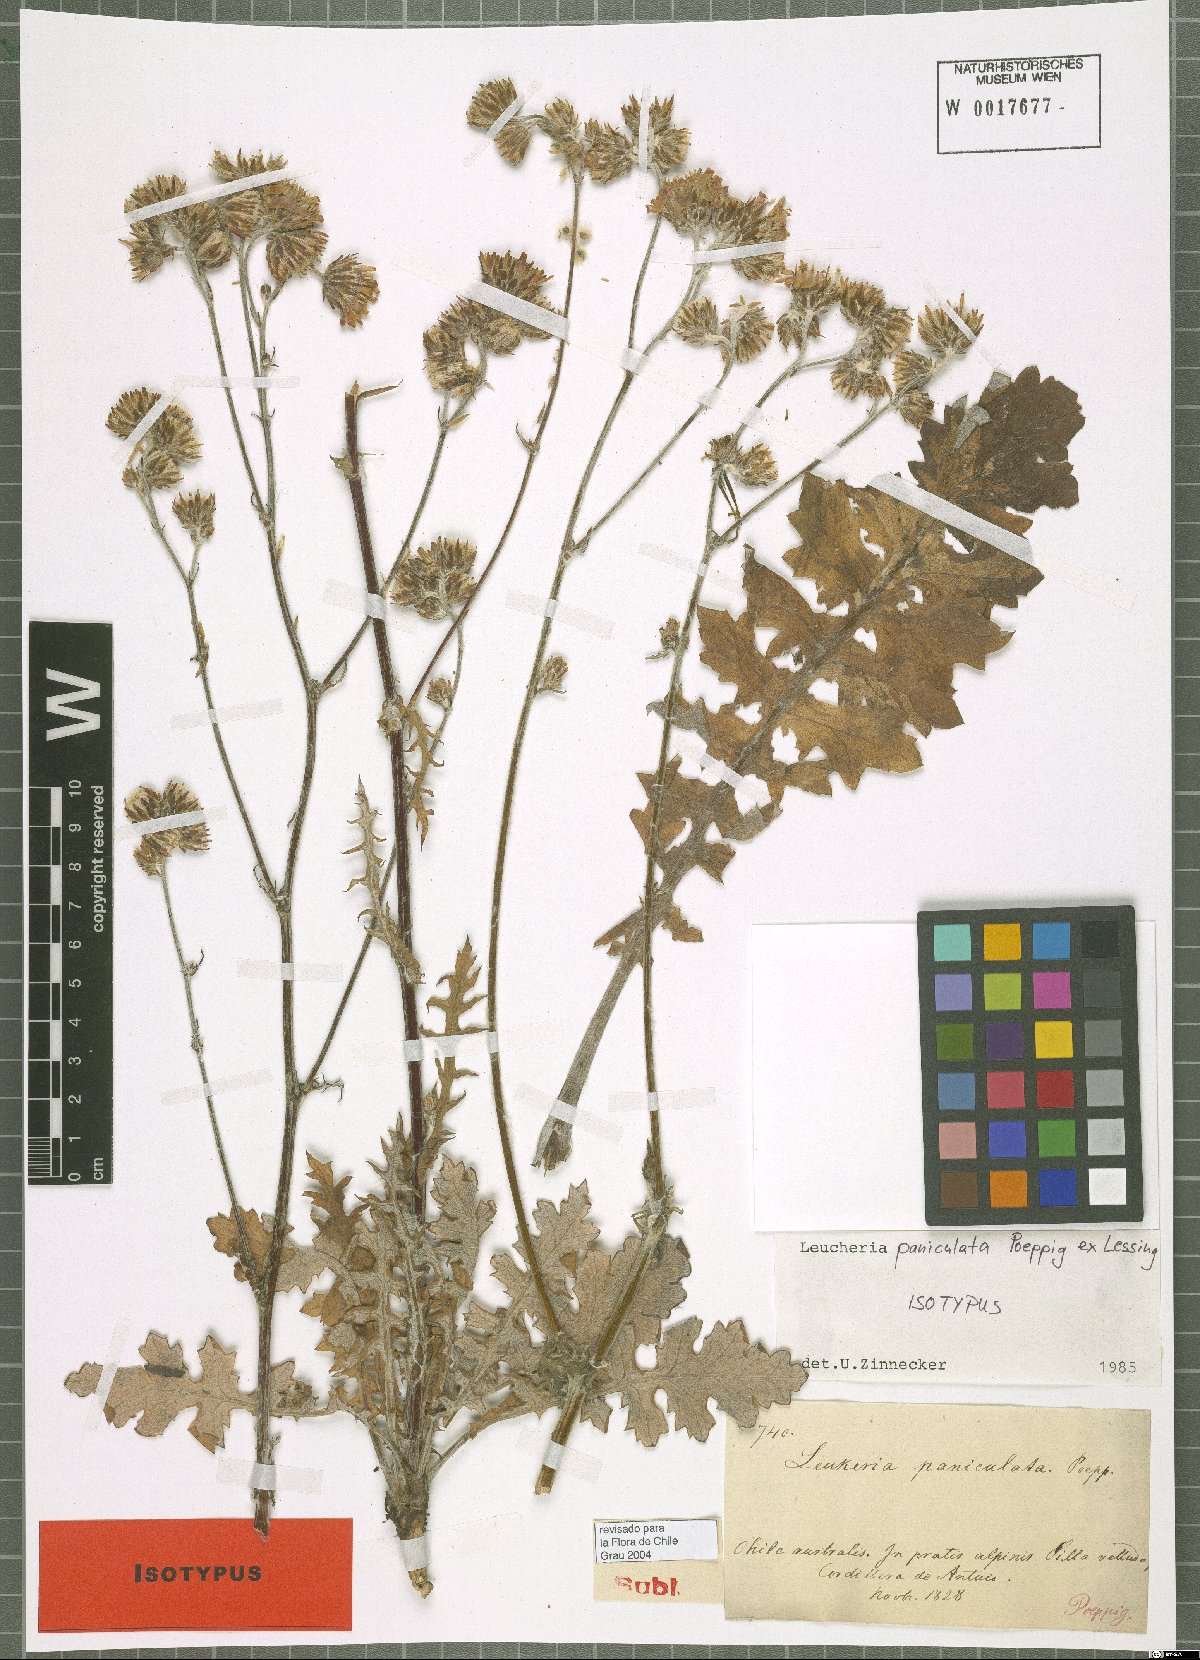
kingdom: Plantae
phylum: Tracheophyta
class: Magnoliopsida
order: Asterales
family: Asteraceae
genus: Leucheria
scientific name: Leucheria paniculata
